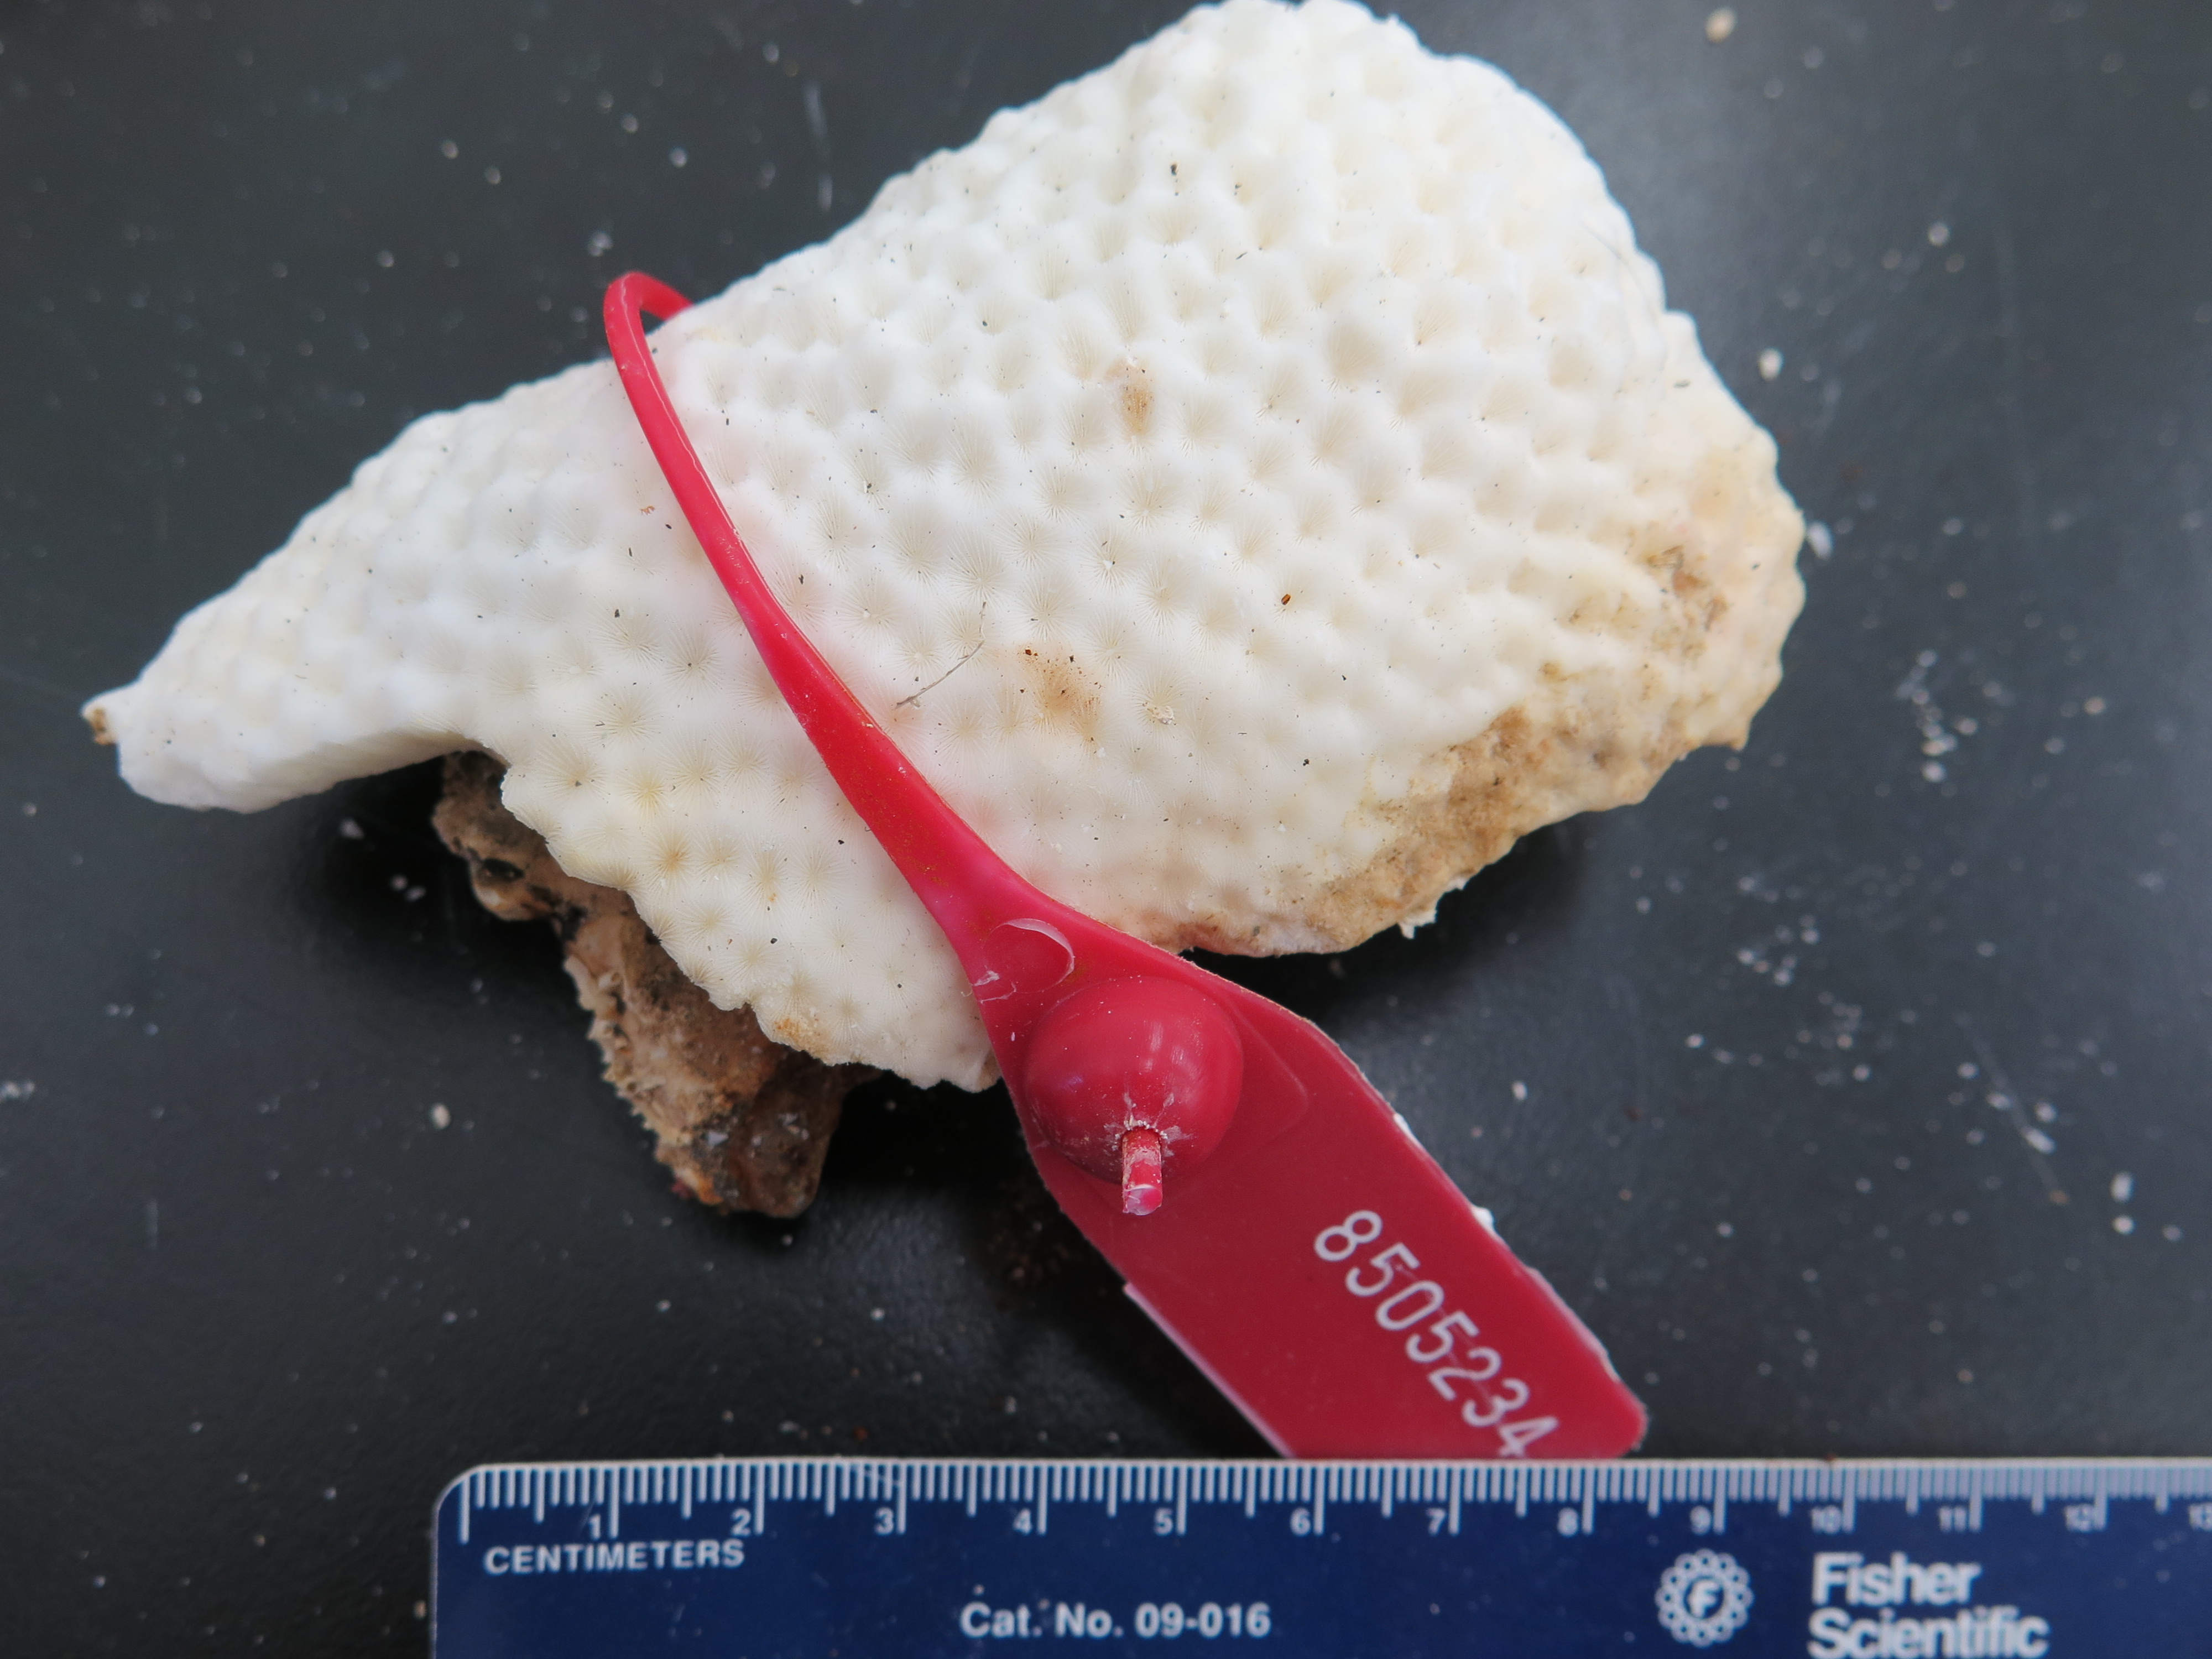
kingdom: Animalia
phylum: Cnidaria
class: Anthozoa
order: Scleractinia
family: Rhizangiidae
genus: Siderastrea
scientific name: Siderastrea siderea
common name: Massive starlet coral
